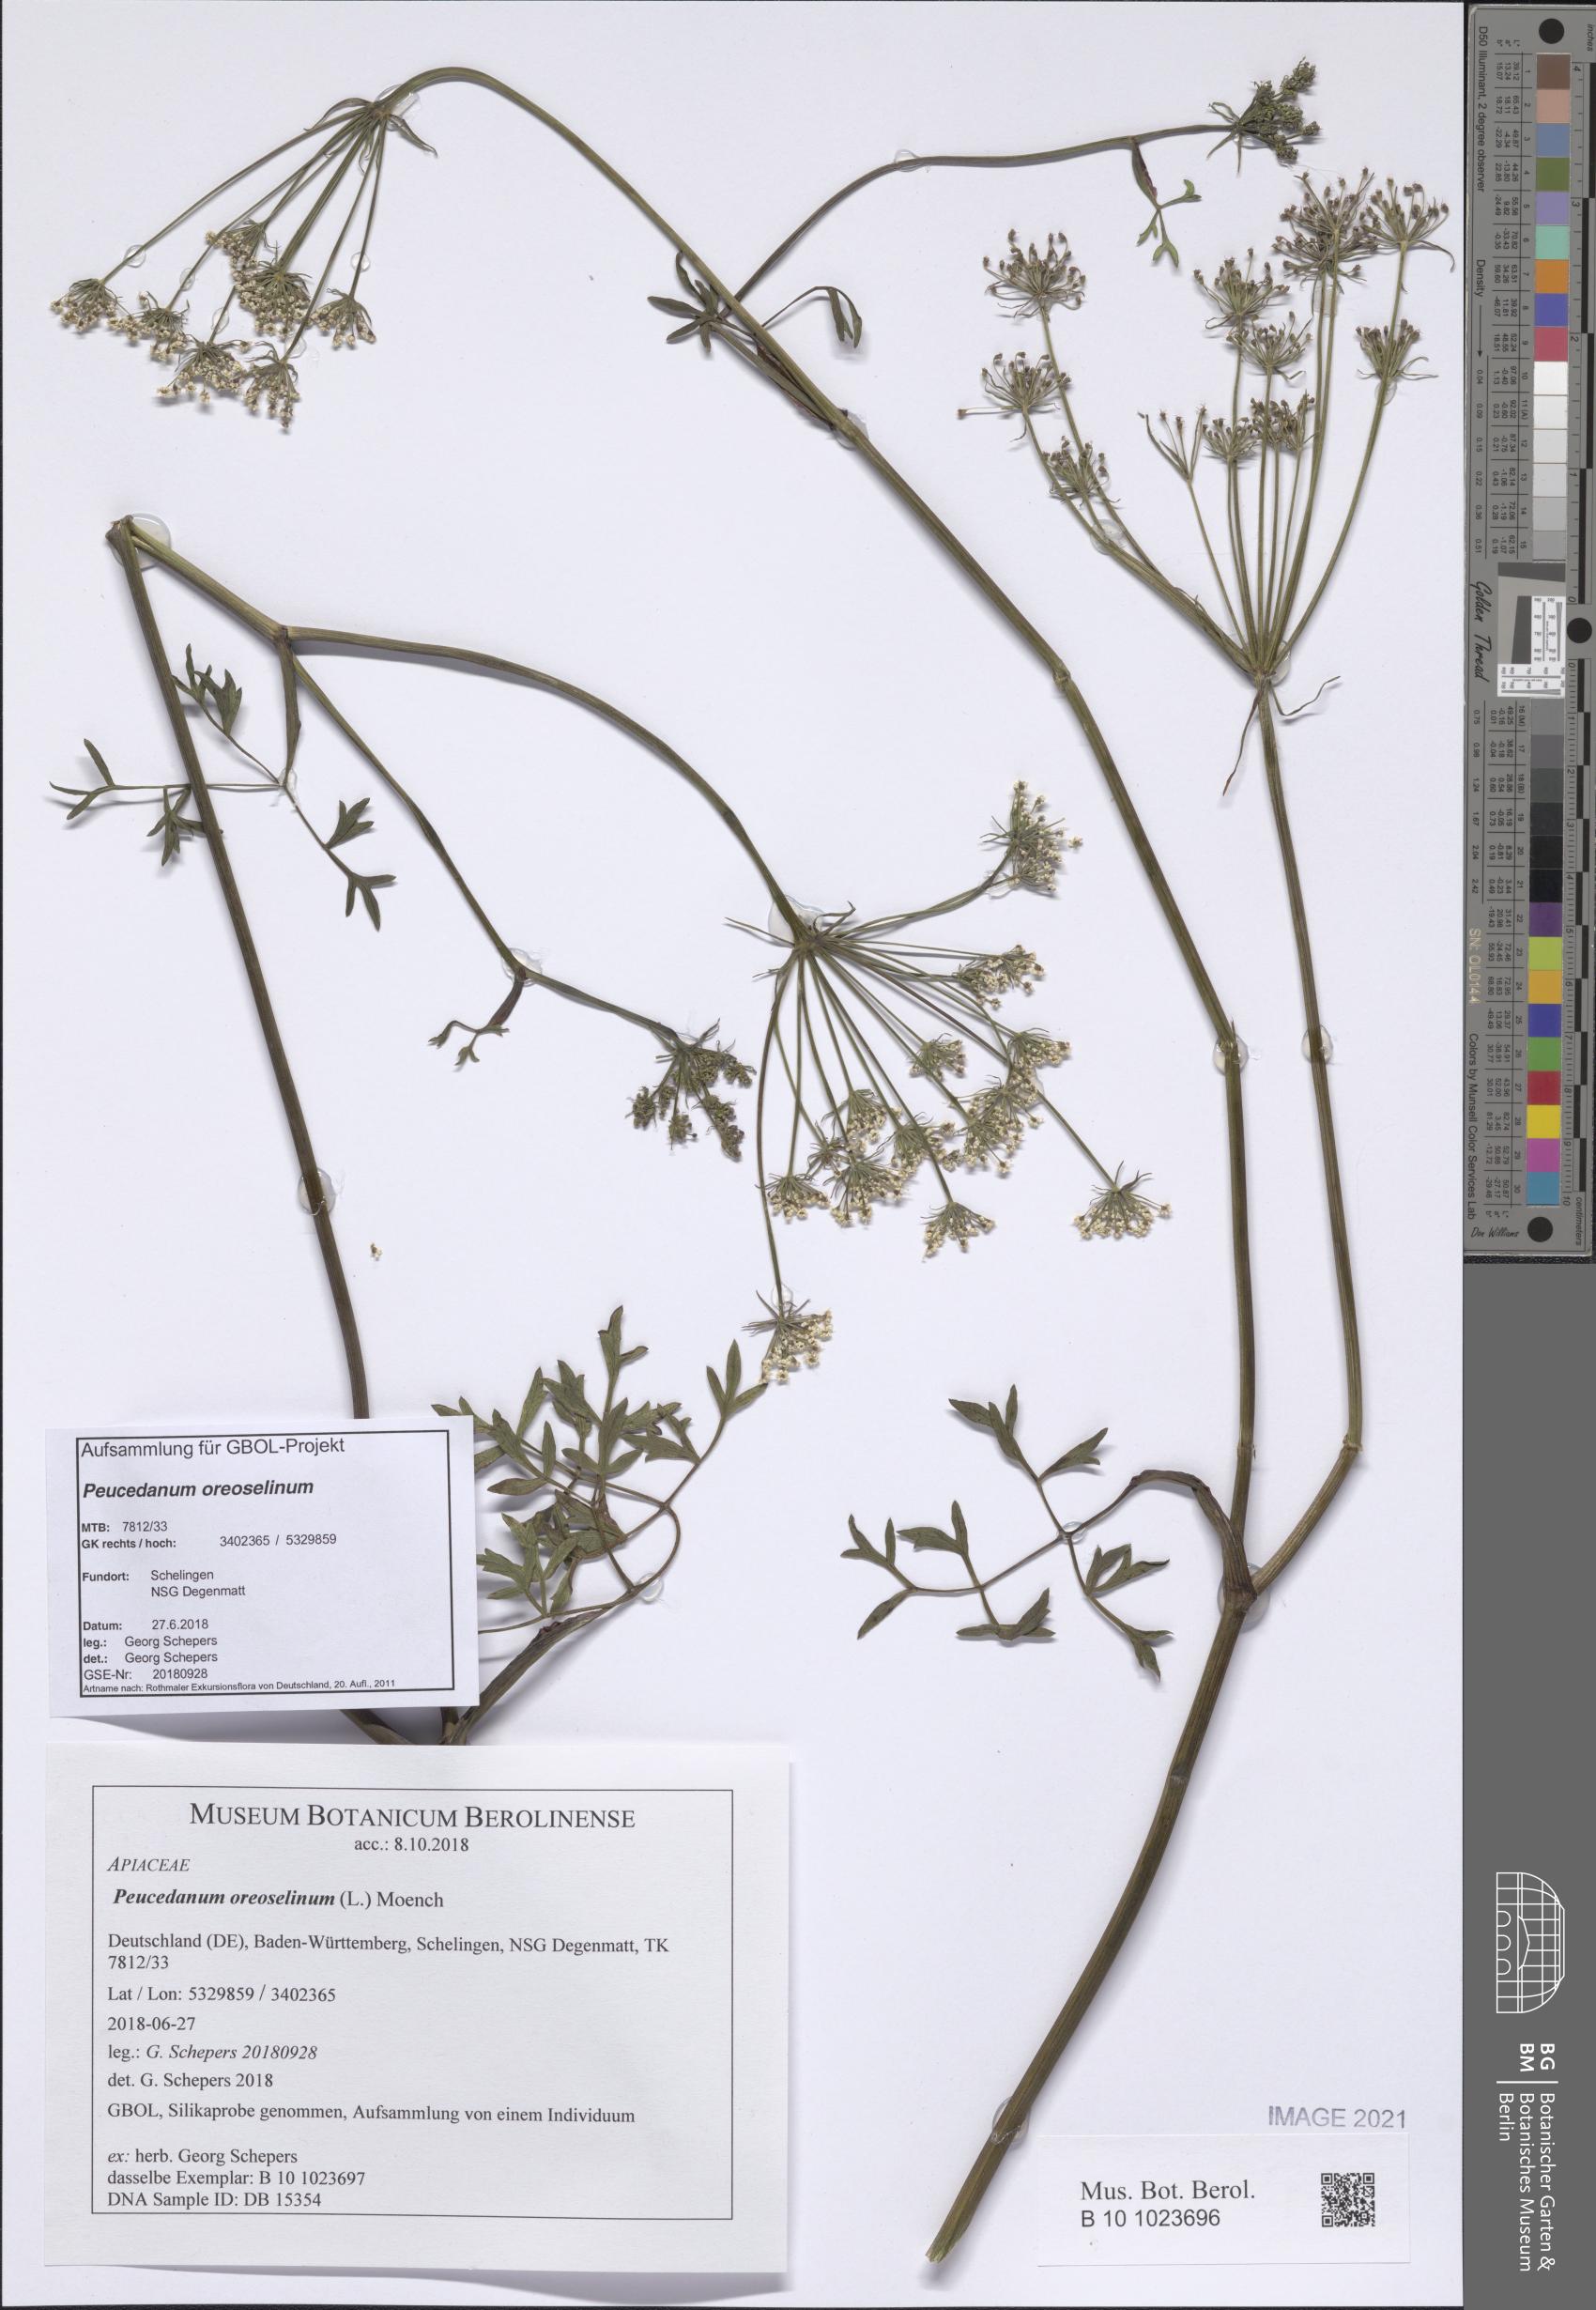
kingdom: Plantae
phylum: Tracheophyta
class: Magnoliopsida
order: Apiales
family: Apiaceae
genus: Oreoselinum
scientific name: Oreoselinum nigrum
